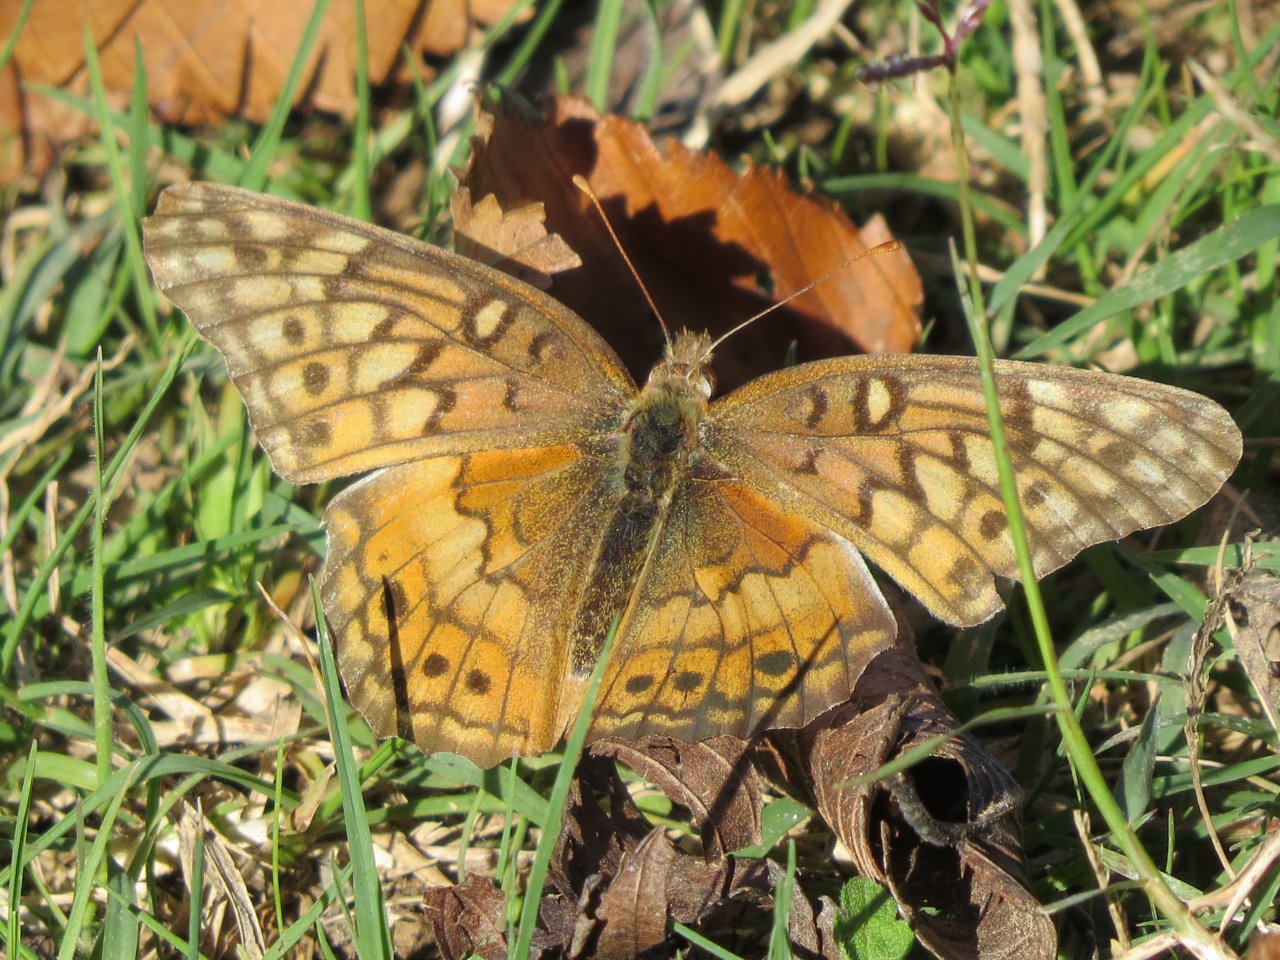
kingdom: Animalia
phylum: Arthropoda
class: Insecta
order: Lepidoptera
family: Nymphalidae
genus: Euptoieta
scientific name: Euptoieta claudia
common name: Variegated Fritillary
